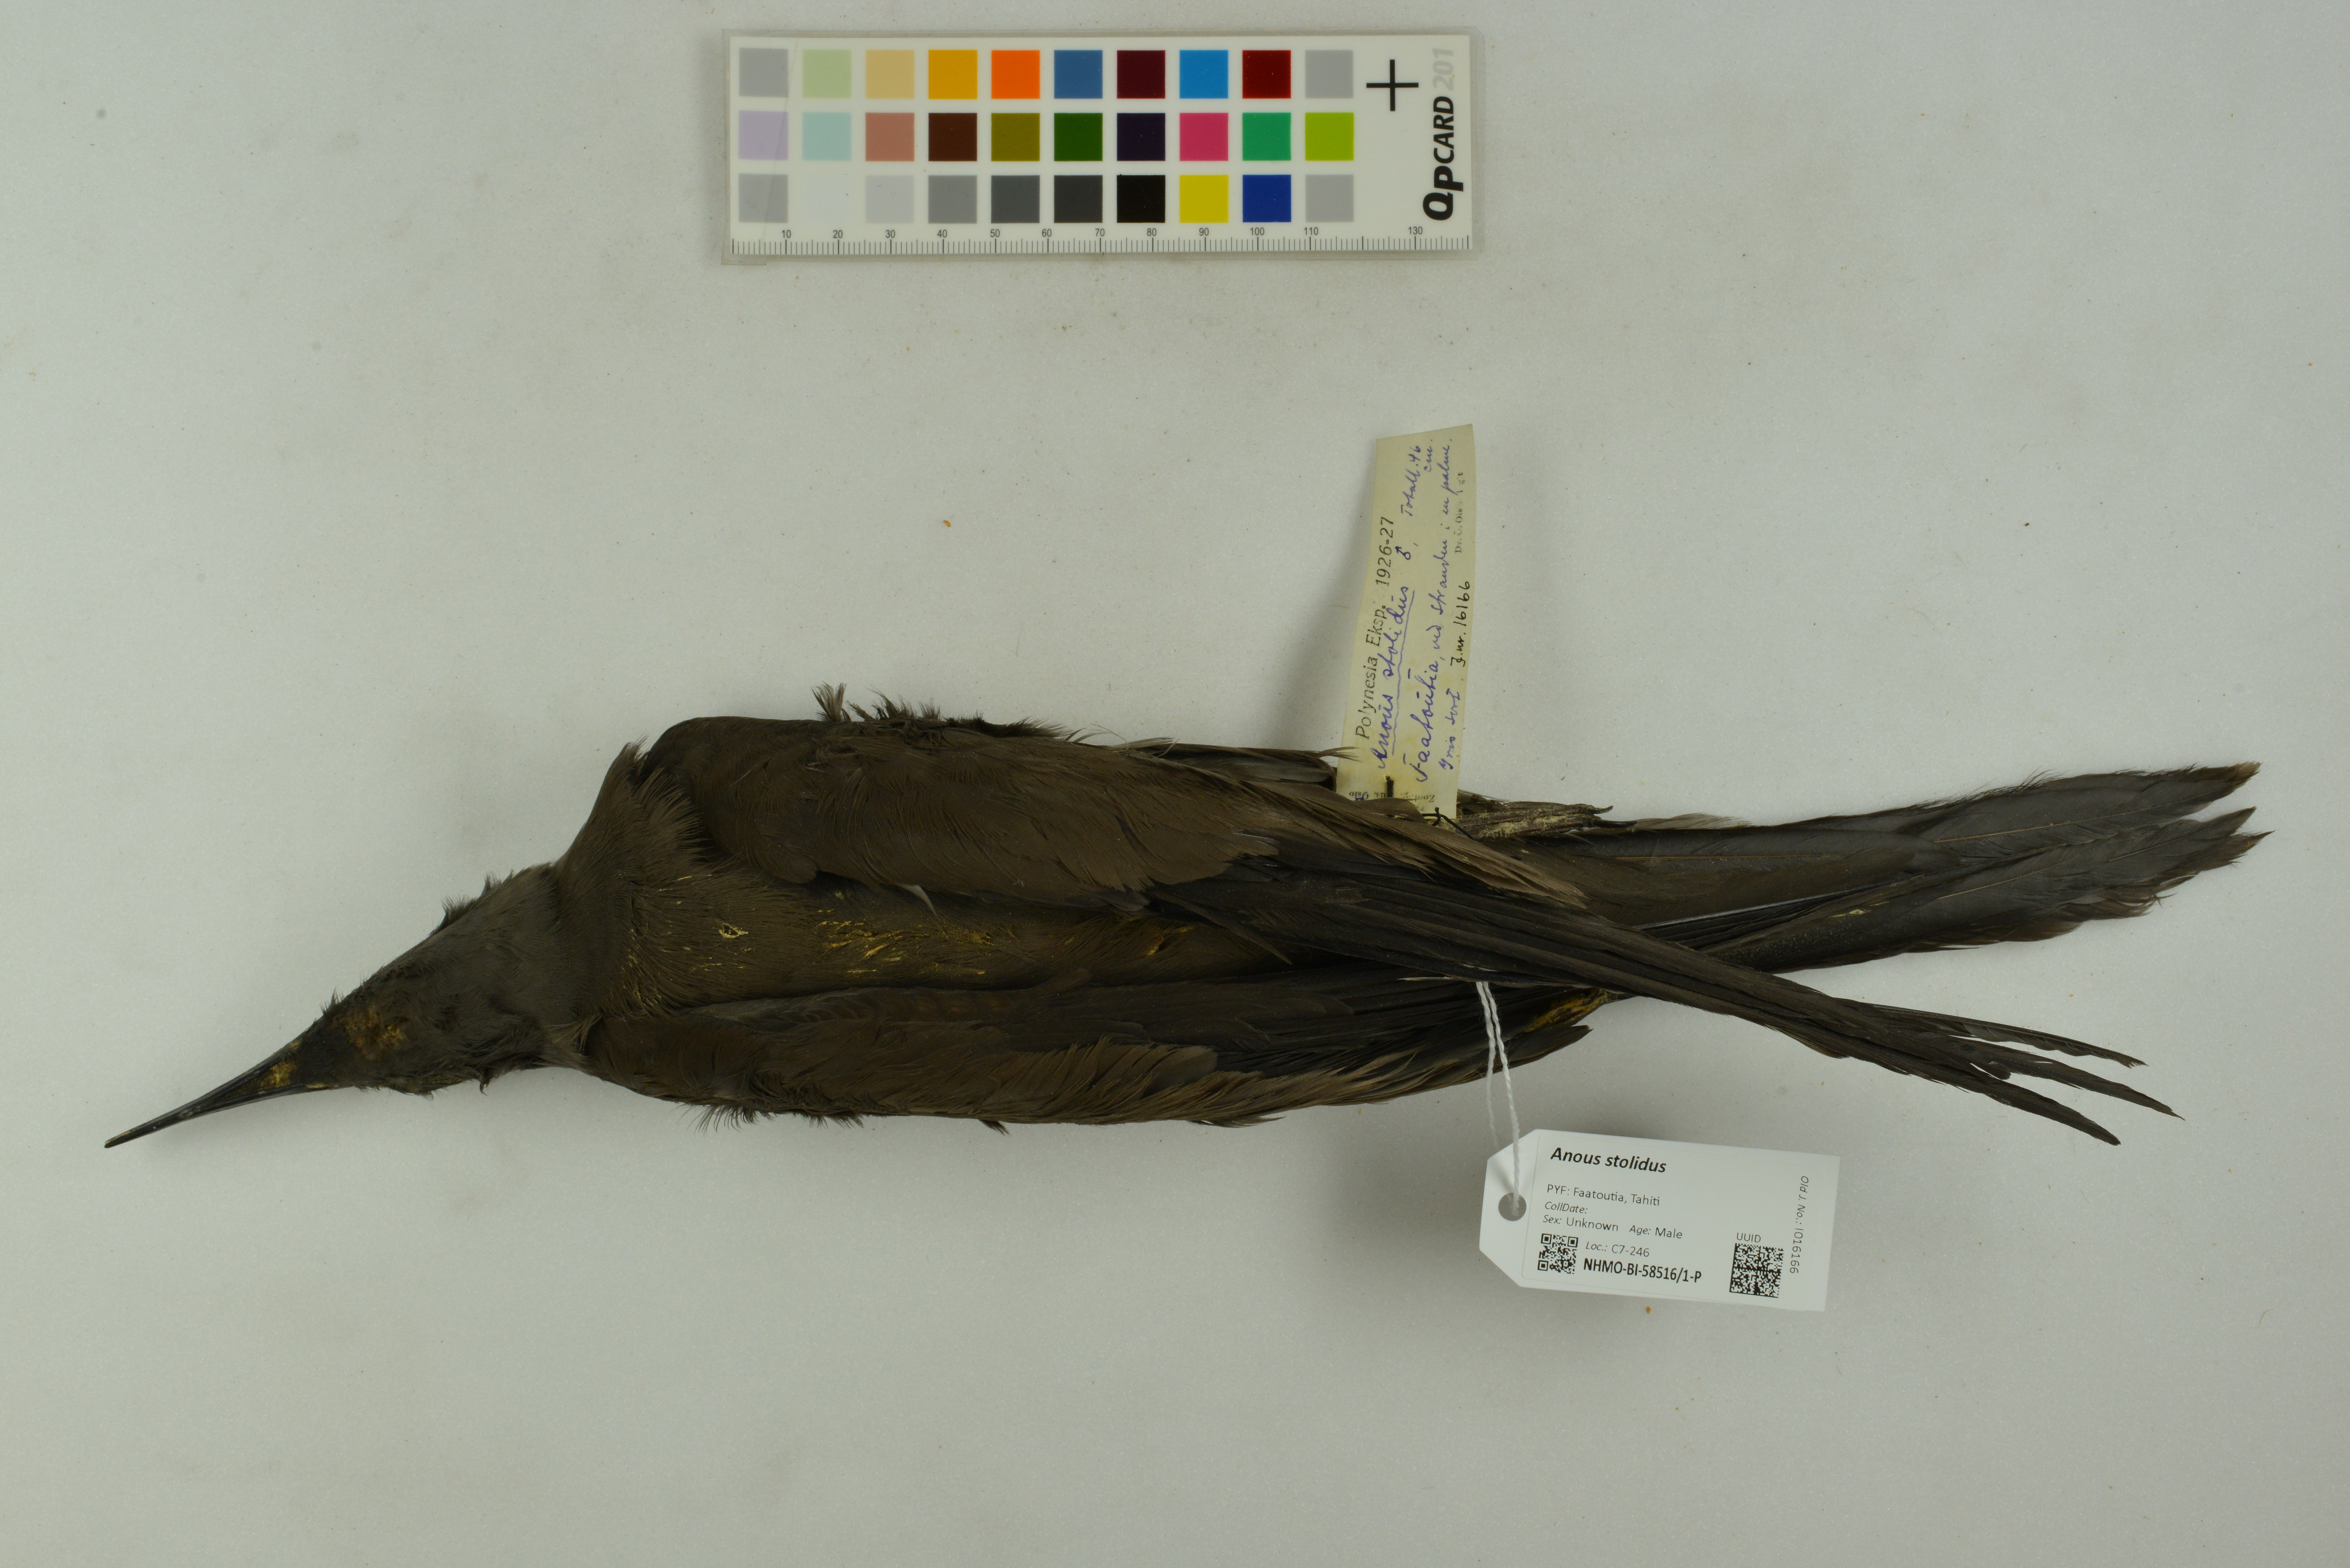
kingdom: Animalia
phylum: Chordata
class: Aves
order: Charadriiformes
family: Laridae
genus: Anous
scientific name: Anous stolidus
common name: Brown noddy
